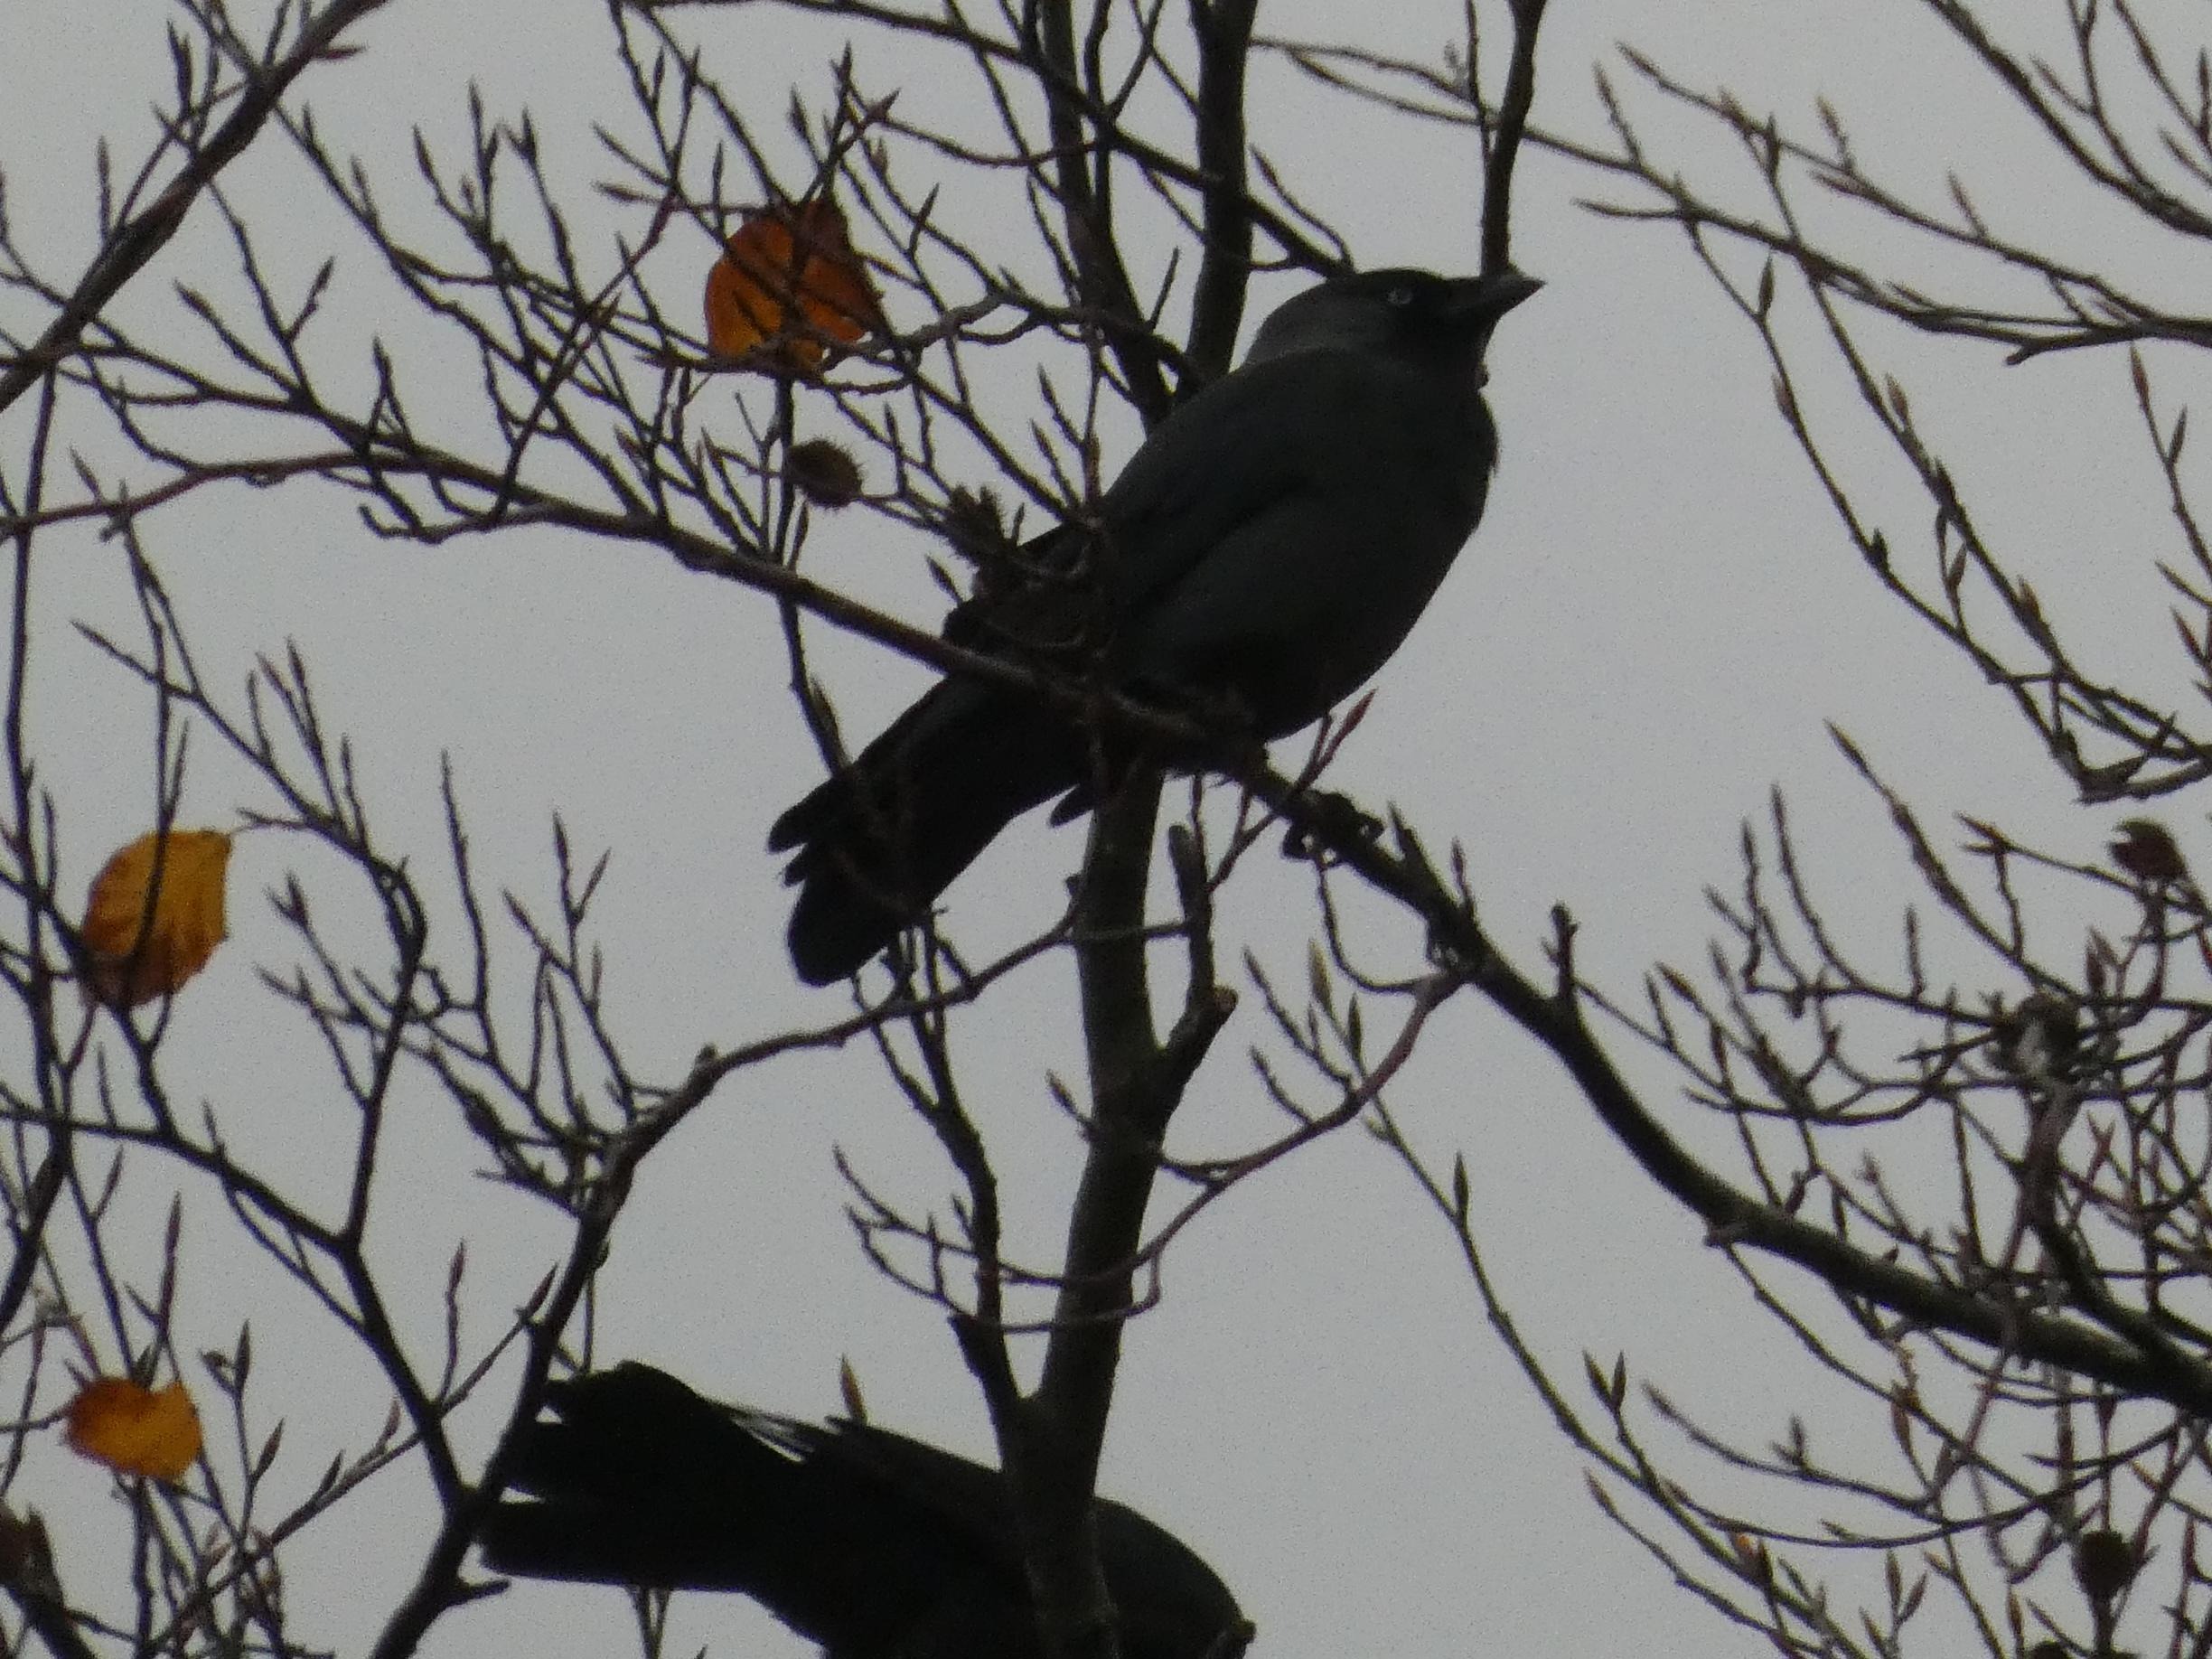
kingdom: Animalia
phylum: Chordata
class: Aves
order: Passeriformes
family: Corvidae
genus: Coloeus
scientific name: Coloeus monedula
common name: Allike
